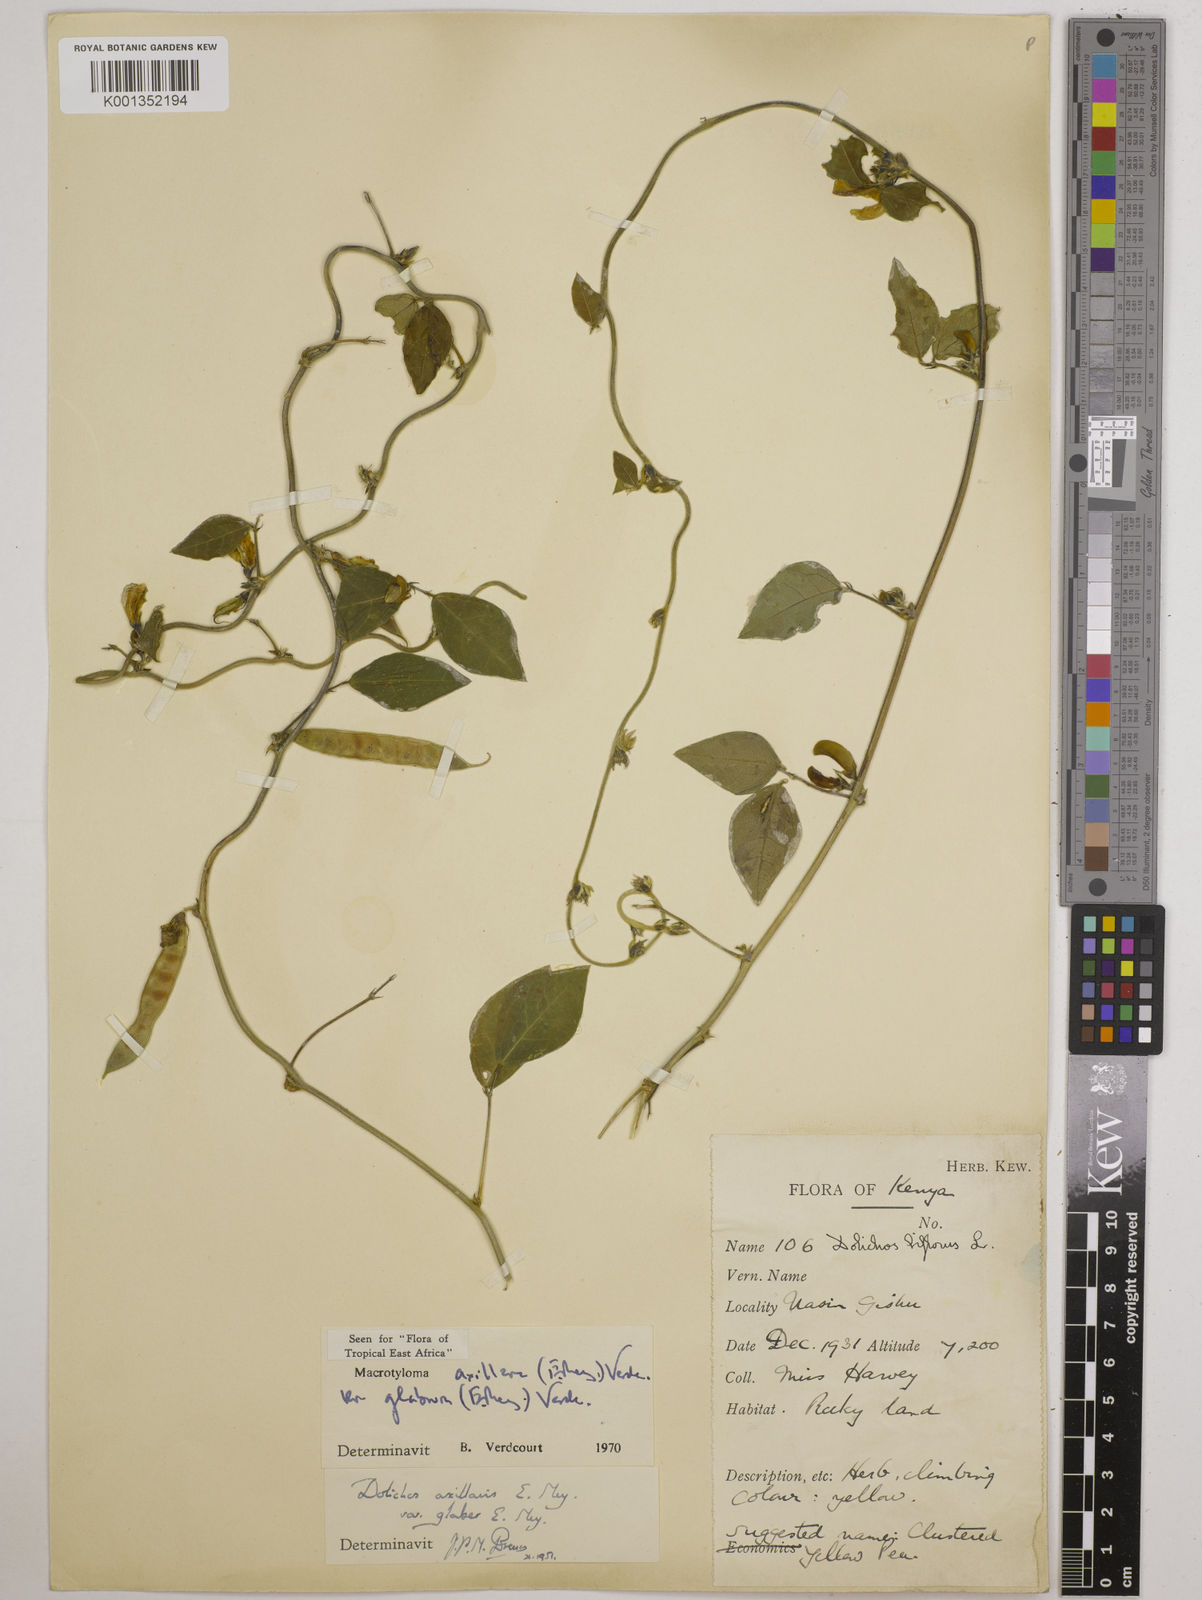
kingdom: Plantae
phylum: Tracheophyta
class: Magnoliopsida
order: Fabales
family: Fabaceae
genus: Macrotyloma
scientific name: Macrotyloma
